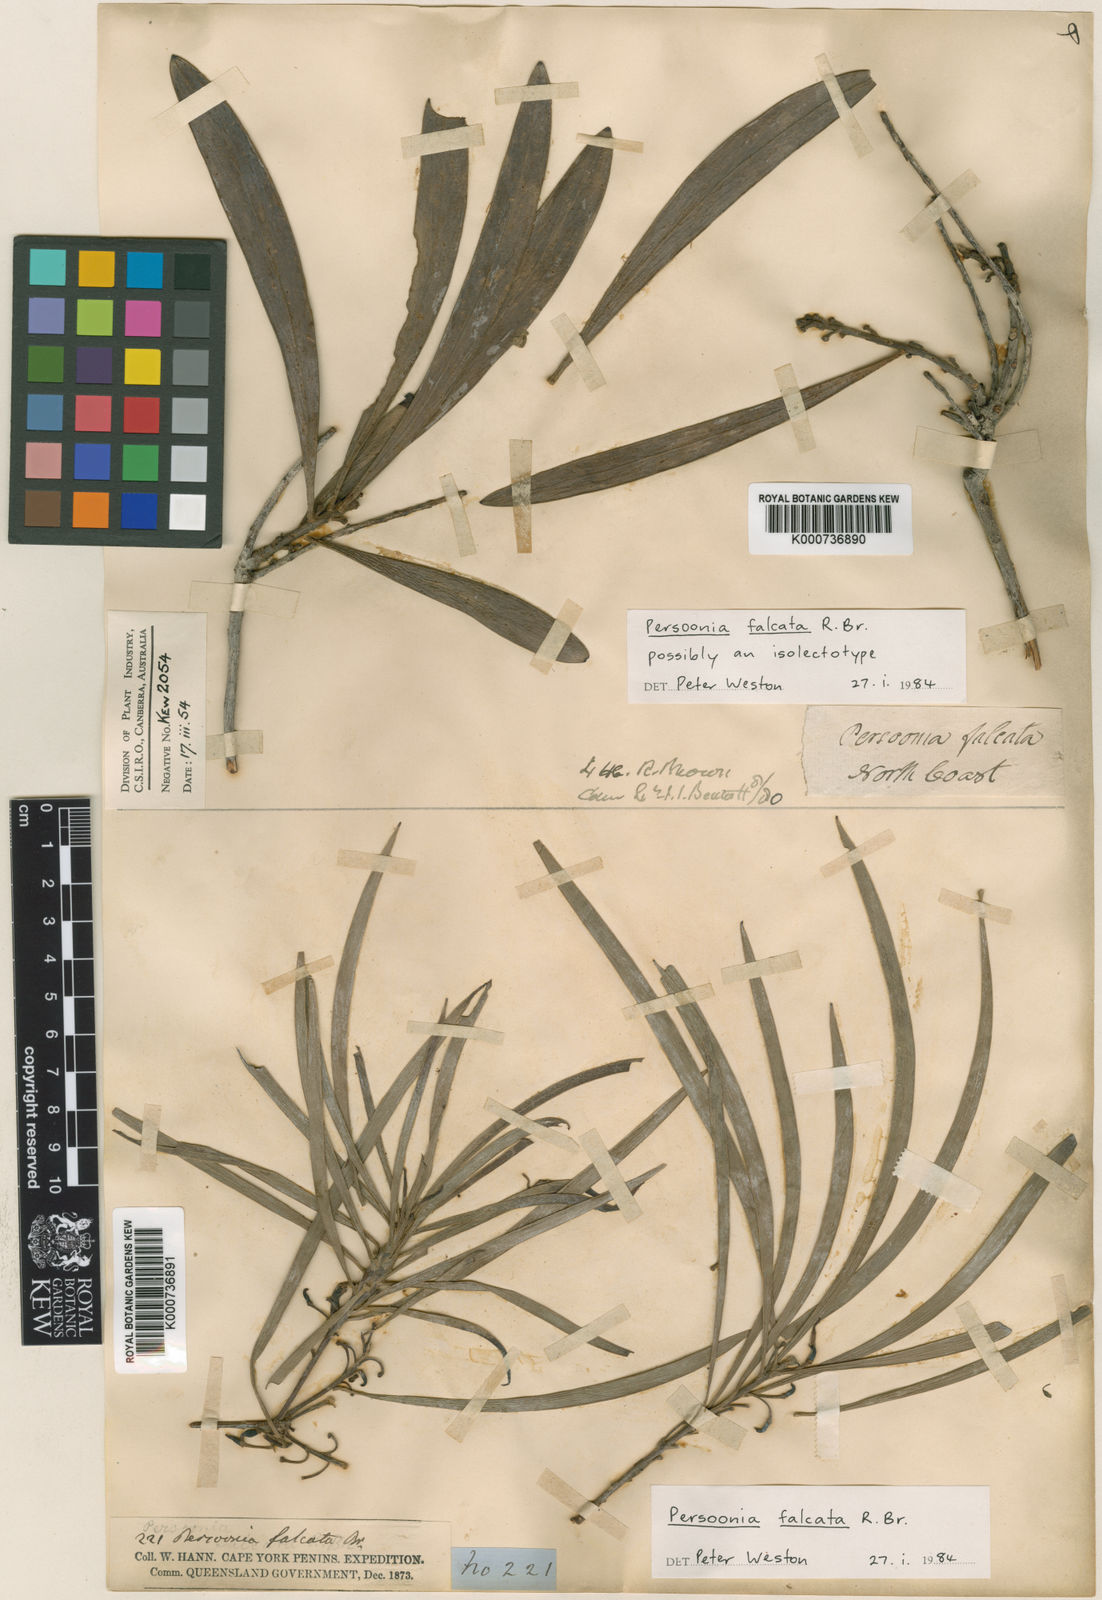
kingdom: Plantae
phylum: Tracheophyta
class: Magnoliopsida
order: Proteales
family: Proteaceae
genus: Persoonia
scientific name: Persoonia falcata
